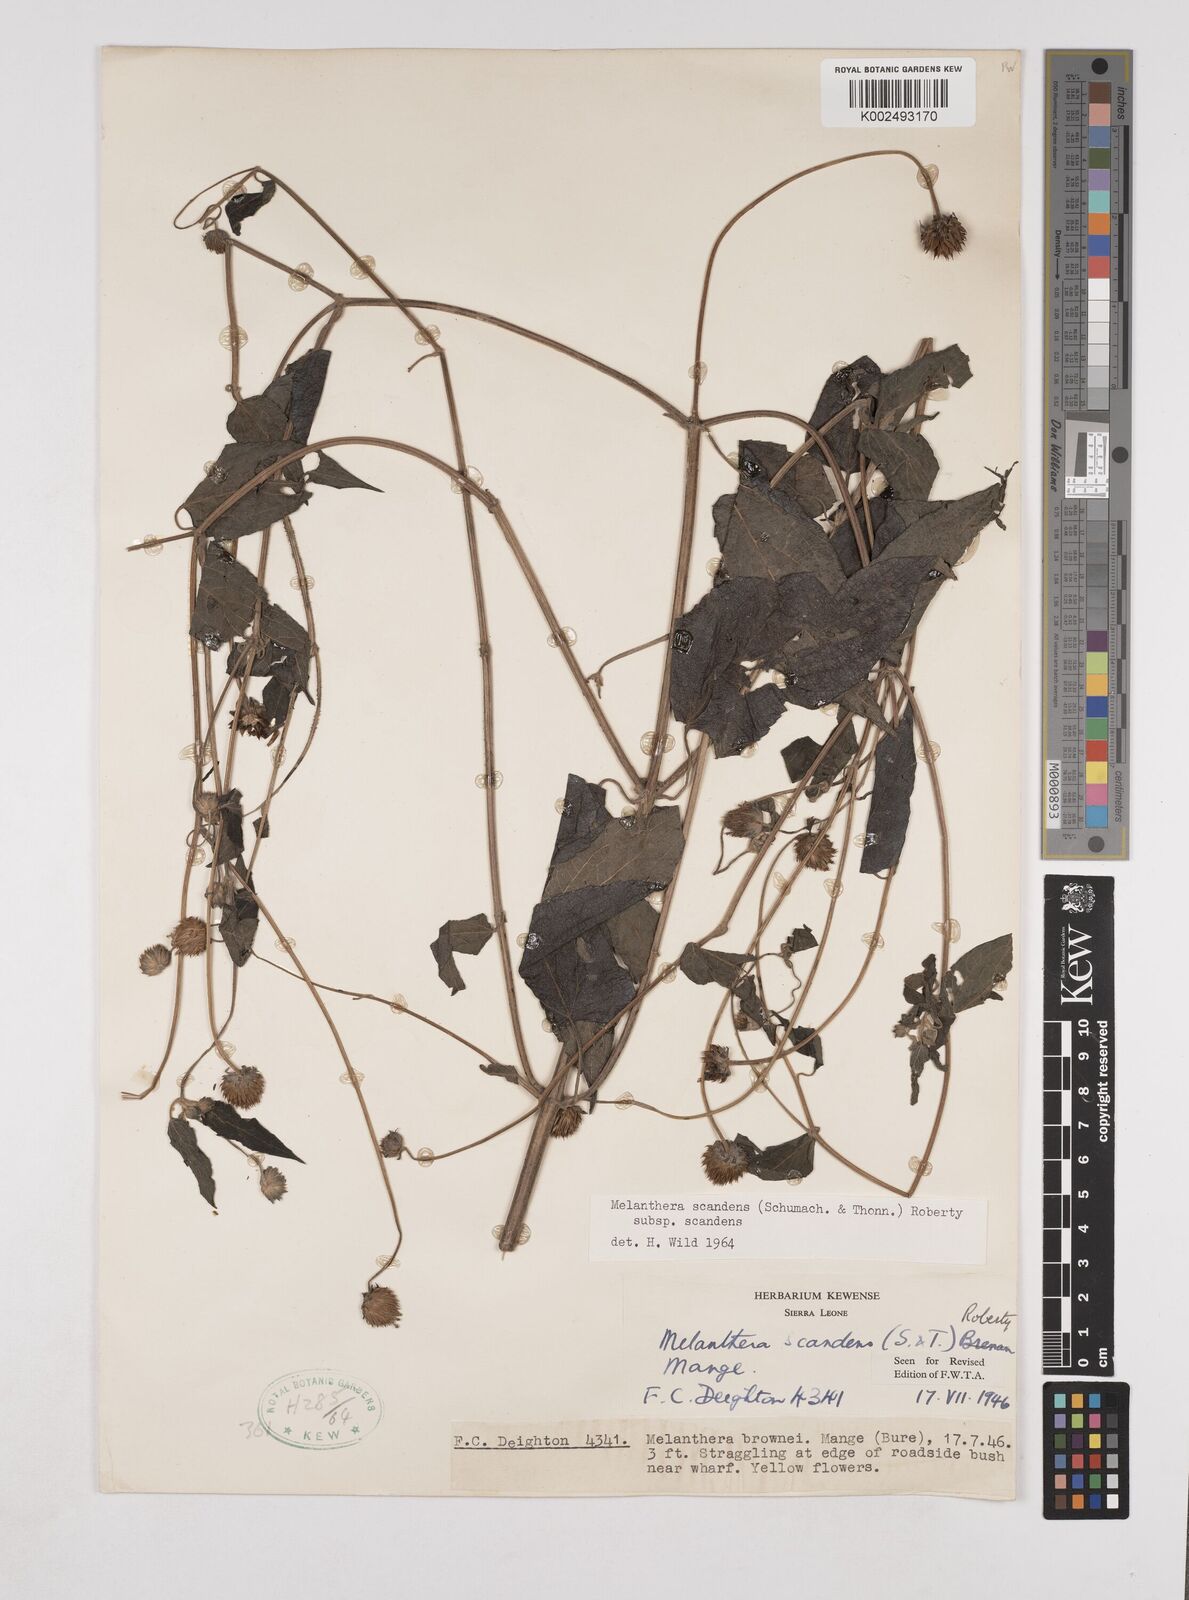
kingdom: Plantae
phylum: Tracheophyta
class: Magnoliopsida
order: Asterales
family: Asteraceae
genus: Lipotriche
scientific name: Lipotriche scandens
